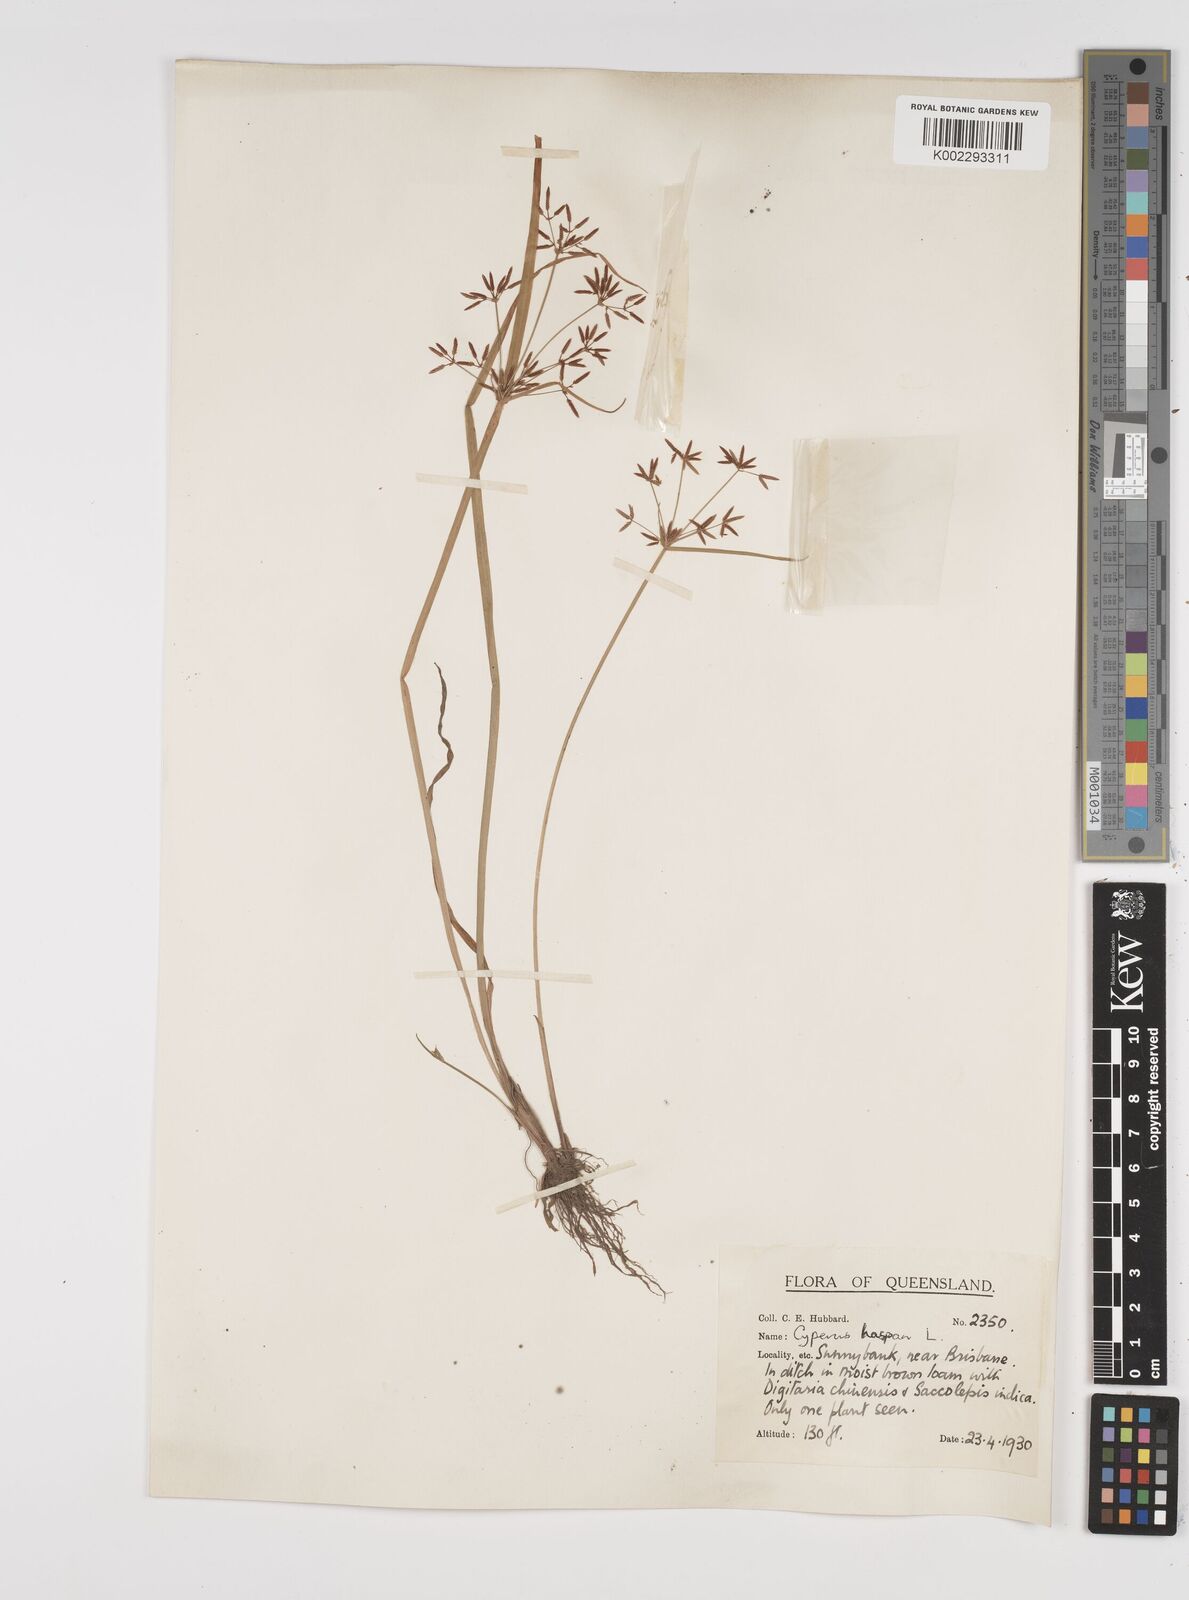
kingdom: Plantae
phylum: Tracheophyta
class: Liliopsida
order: Poales
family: Cyperaceae
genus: Cyperus
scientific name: Cyperus haspan
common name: Haspan flatsedge
